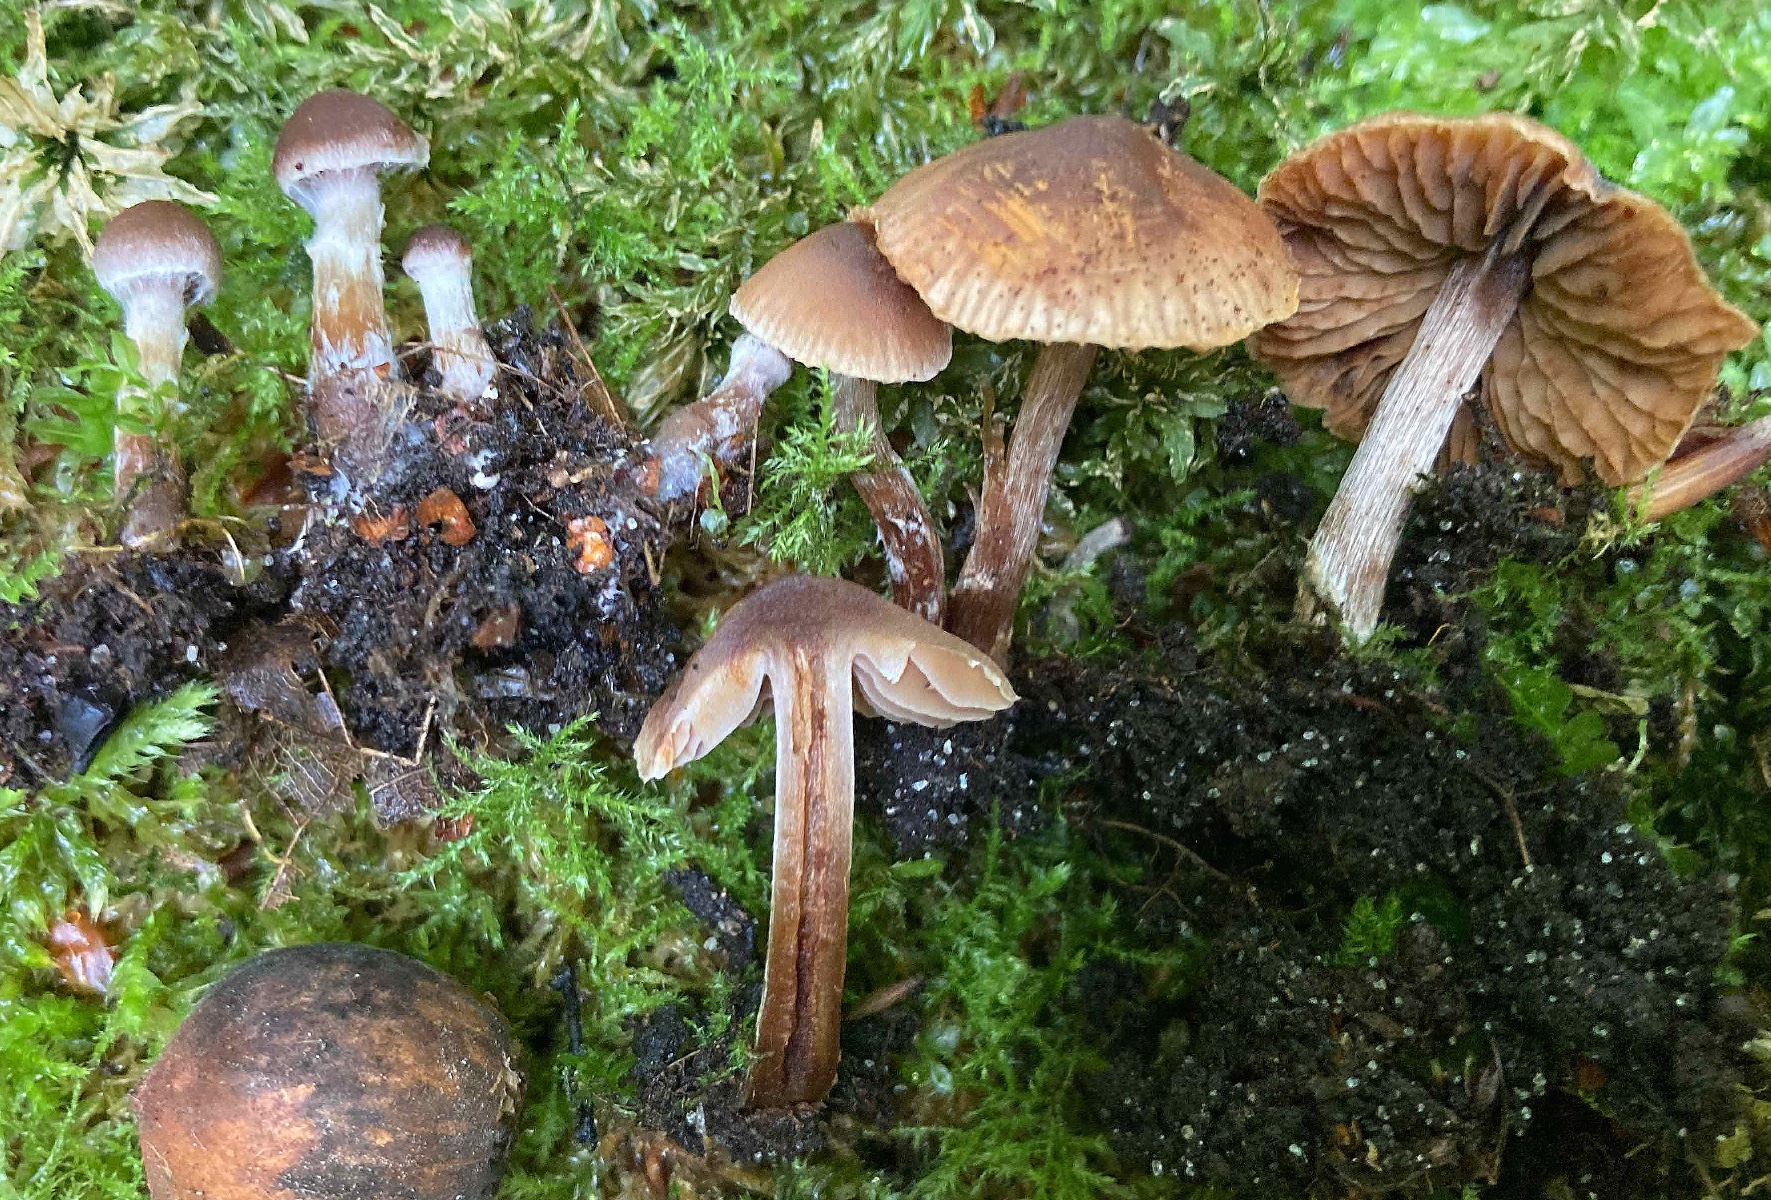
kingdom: Fungi
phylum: Basidiomycota
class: Agaricomycetes
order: Agaricales
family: Cortinariaceae
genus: Cortinarius
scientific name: Cortinarius russulaespermus
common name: finstribet slørhat
